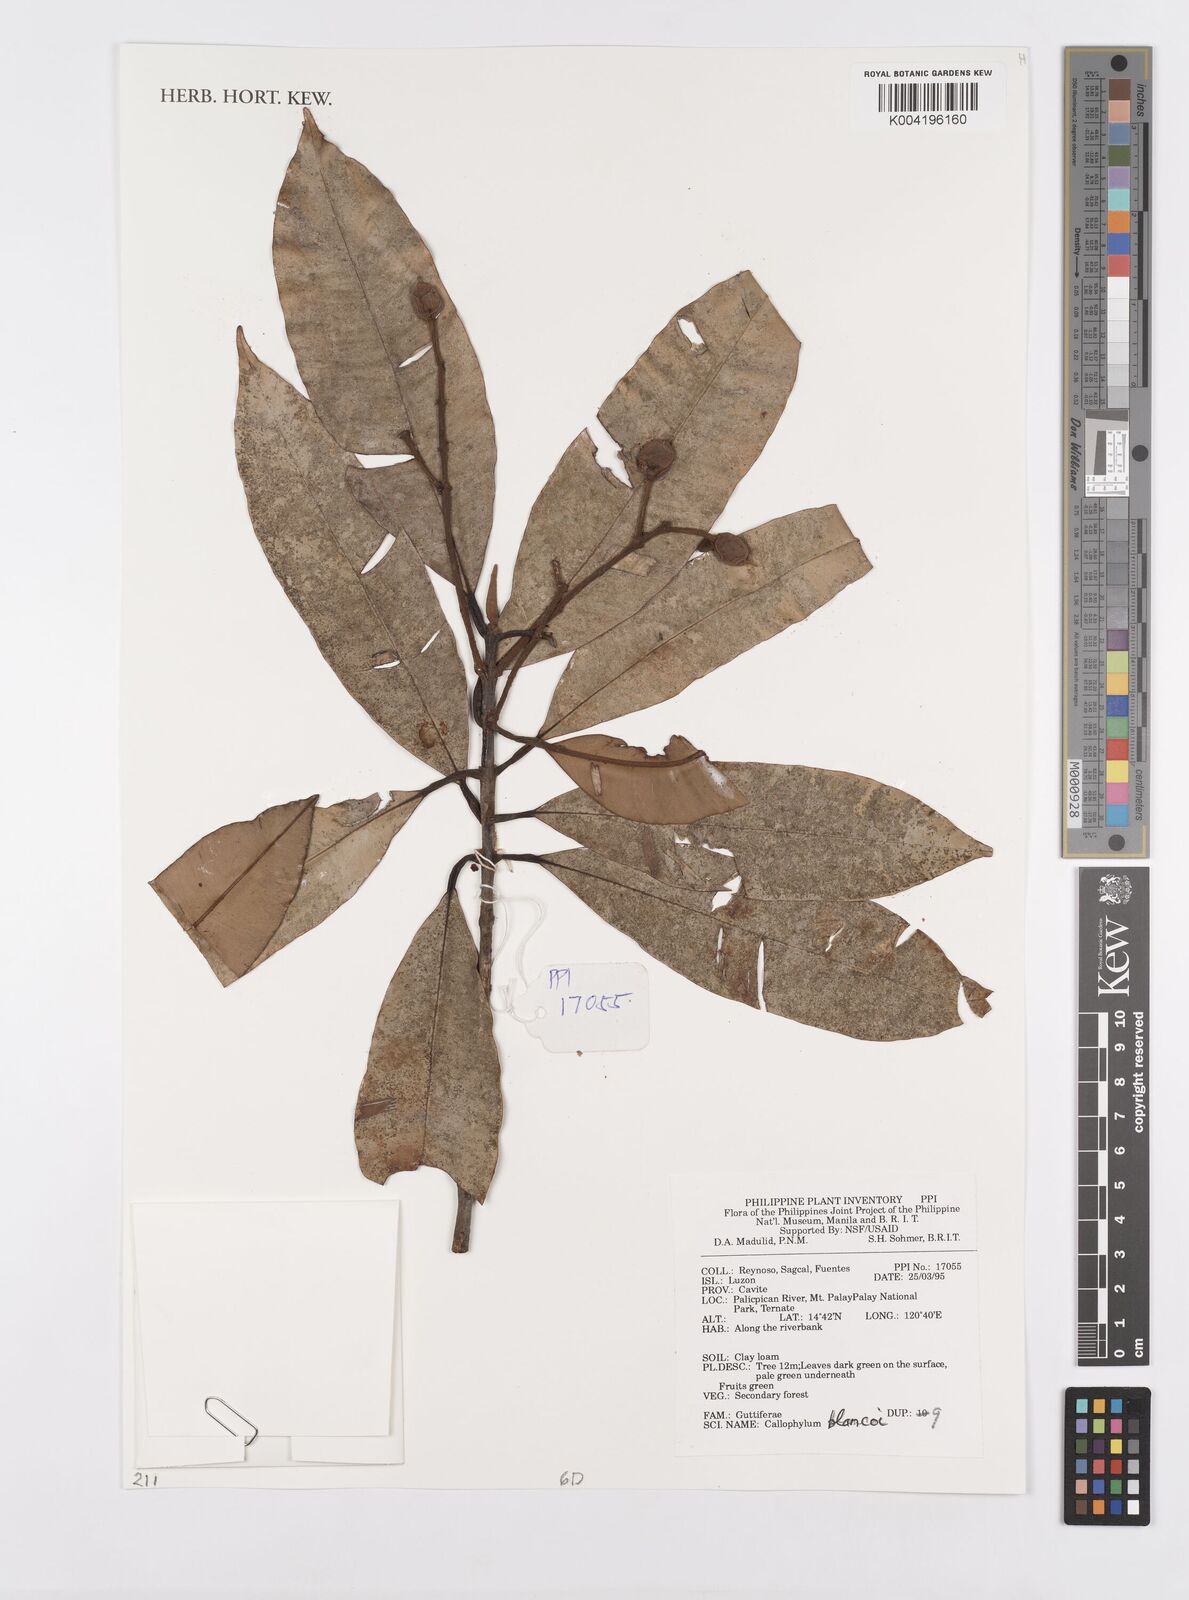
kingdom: Plantae
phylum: Tracheophyta
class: Magnoliopsida
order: Malpighiales
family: Calophyllaceae
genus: Calophyllum
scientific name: Calophyllum blancoi
